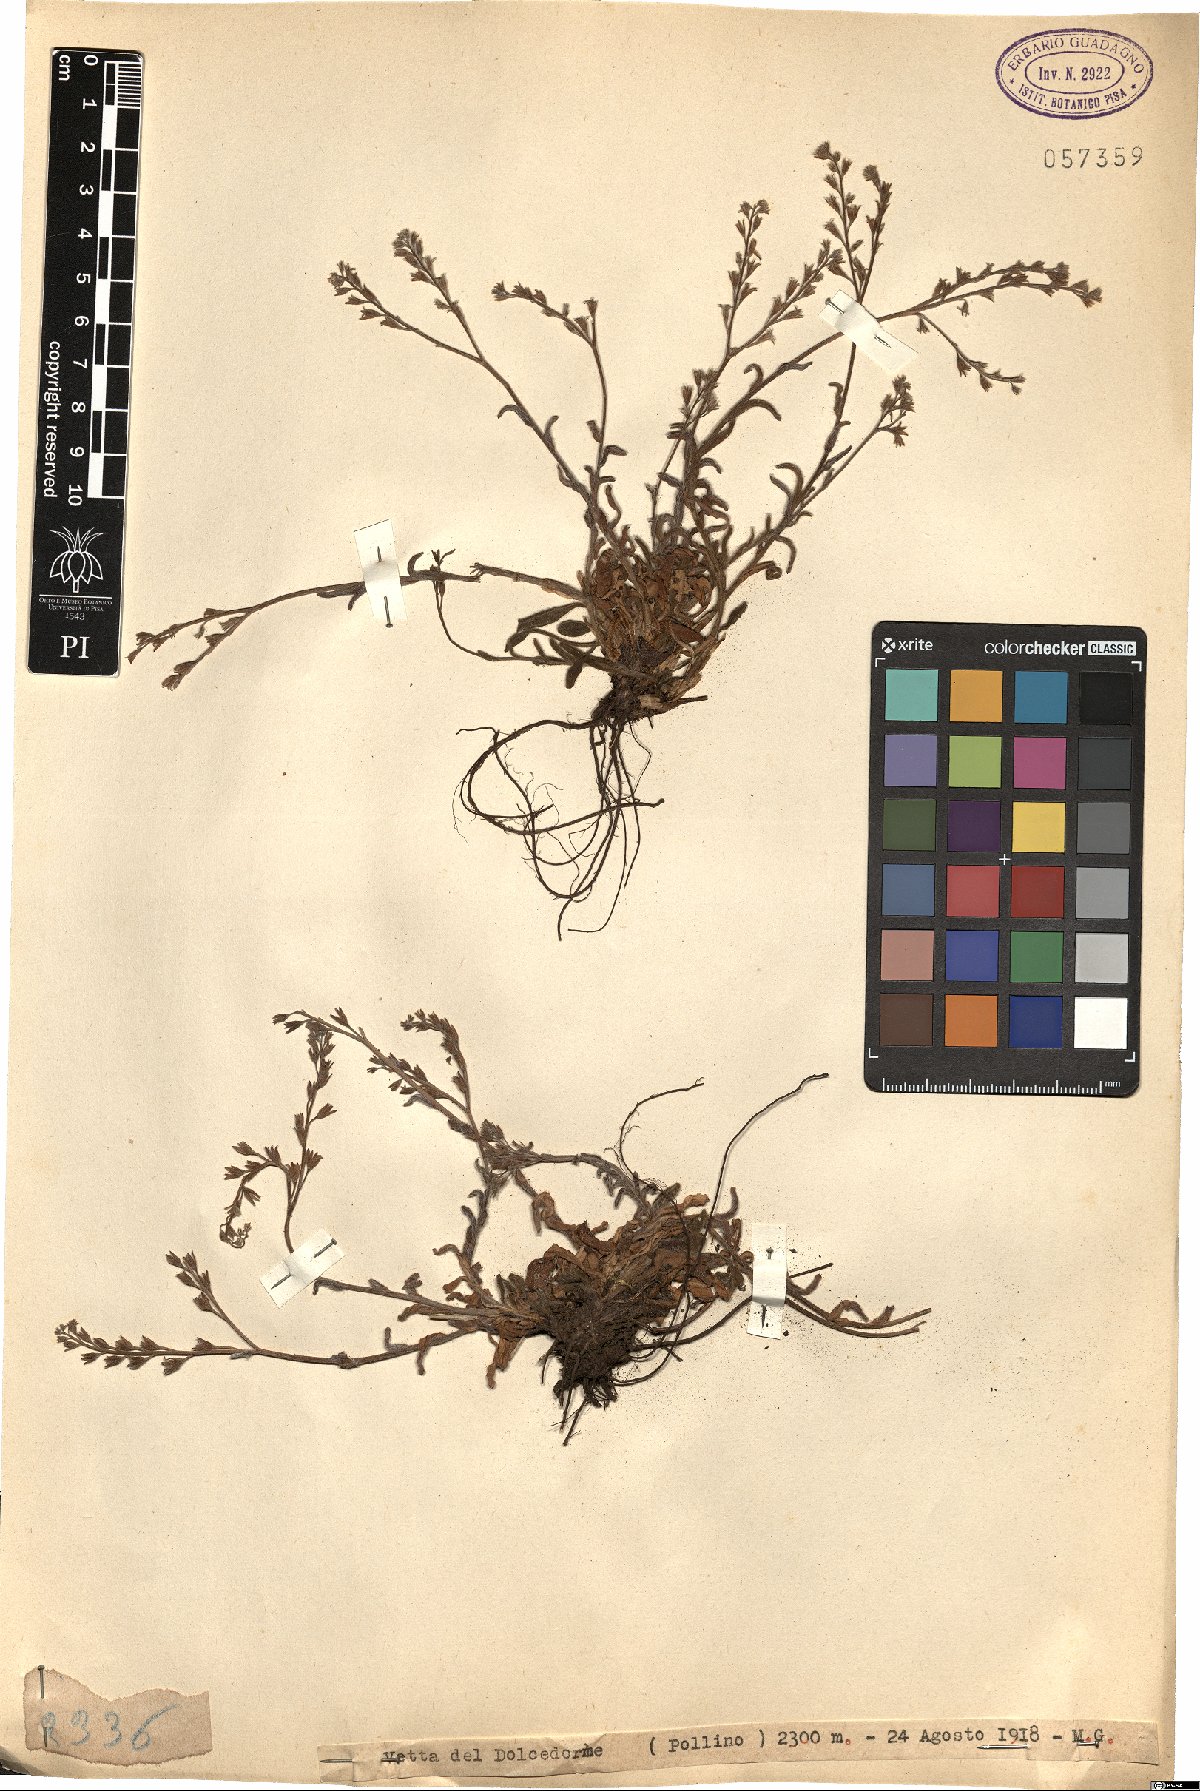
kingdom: Plantae
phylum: Tracheophyta
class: Magnoliopsida
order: Boraginales
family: Boraginaceae
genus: Myosotis
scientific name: Myosotis
